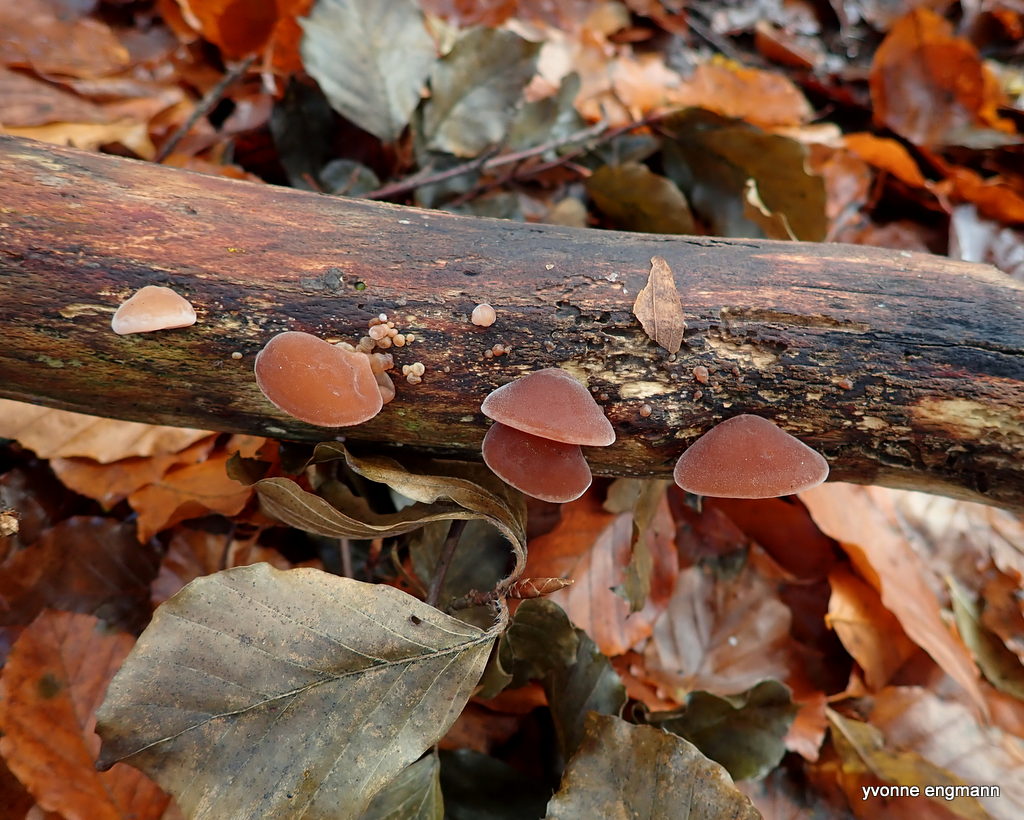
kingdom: Fungi
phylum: Basidiomycota
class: Agaricomycetes
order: Auriculariales
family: Auriculariaceae
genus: Auricularia
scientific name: Auricularia auricula-judae
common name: almindelig judasøre
